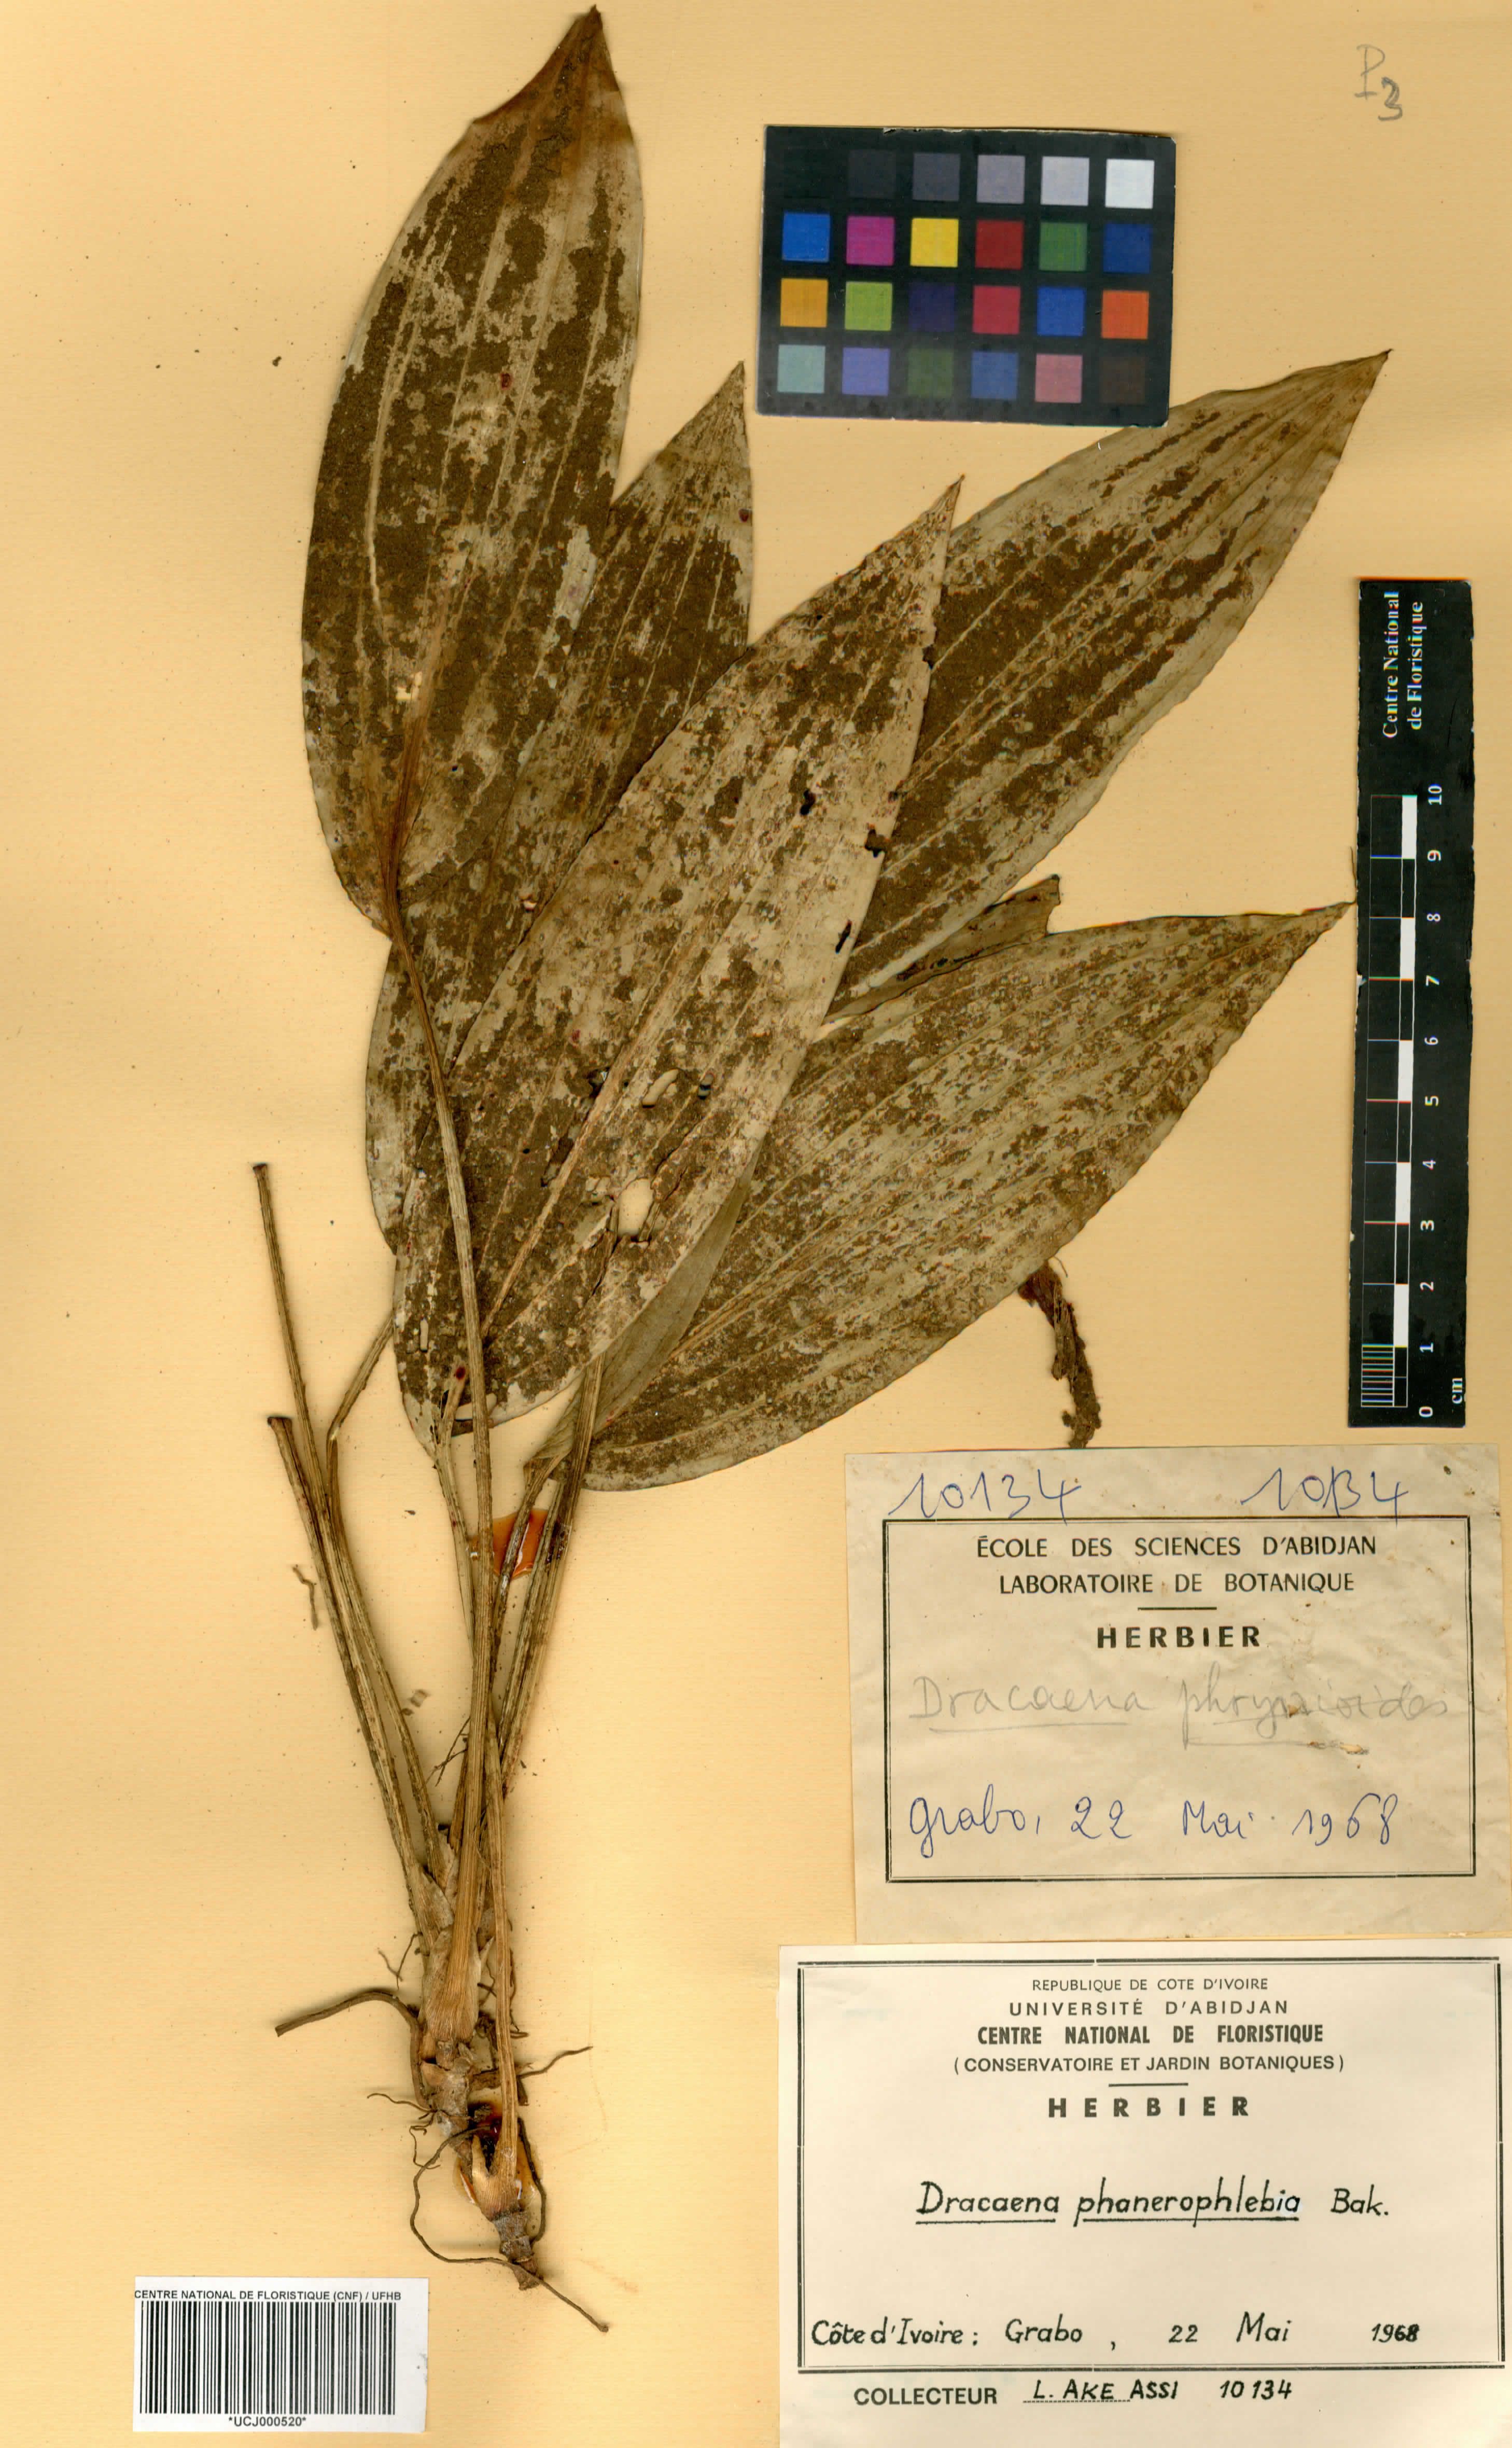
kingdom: Plantae
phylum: Tracheophyta
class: Liliopsida
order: Asparagales
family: Asparagaceae
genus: Dracaena
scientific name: Dracaena phanerophlebia
